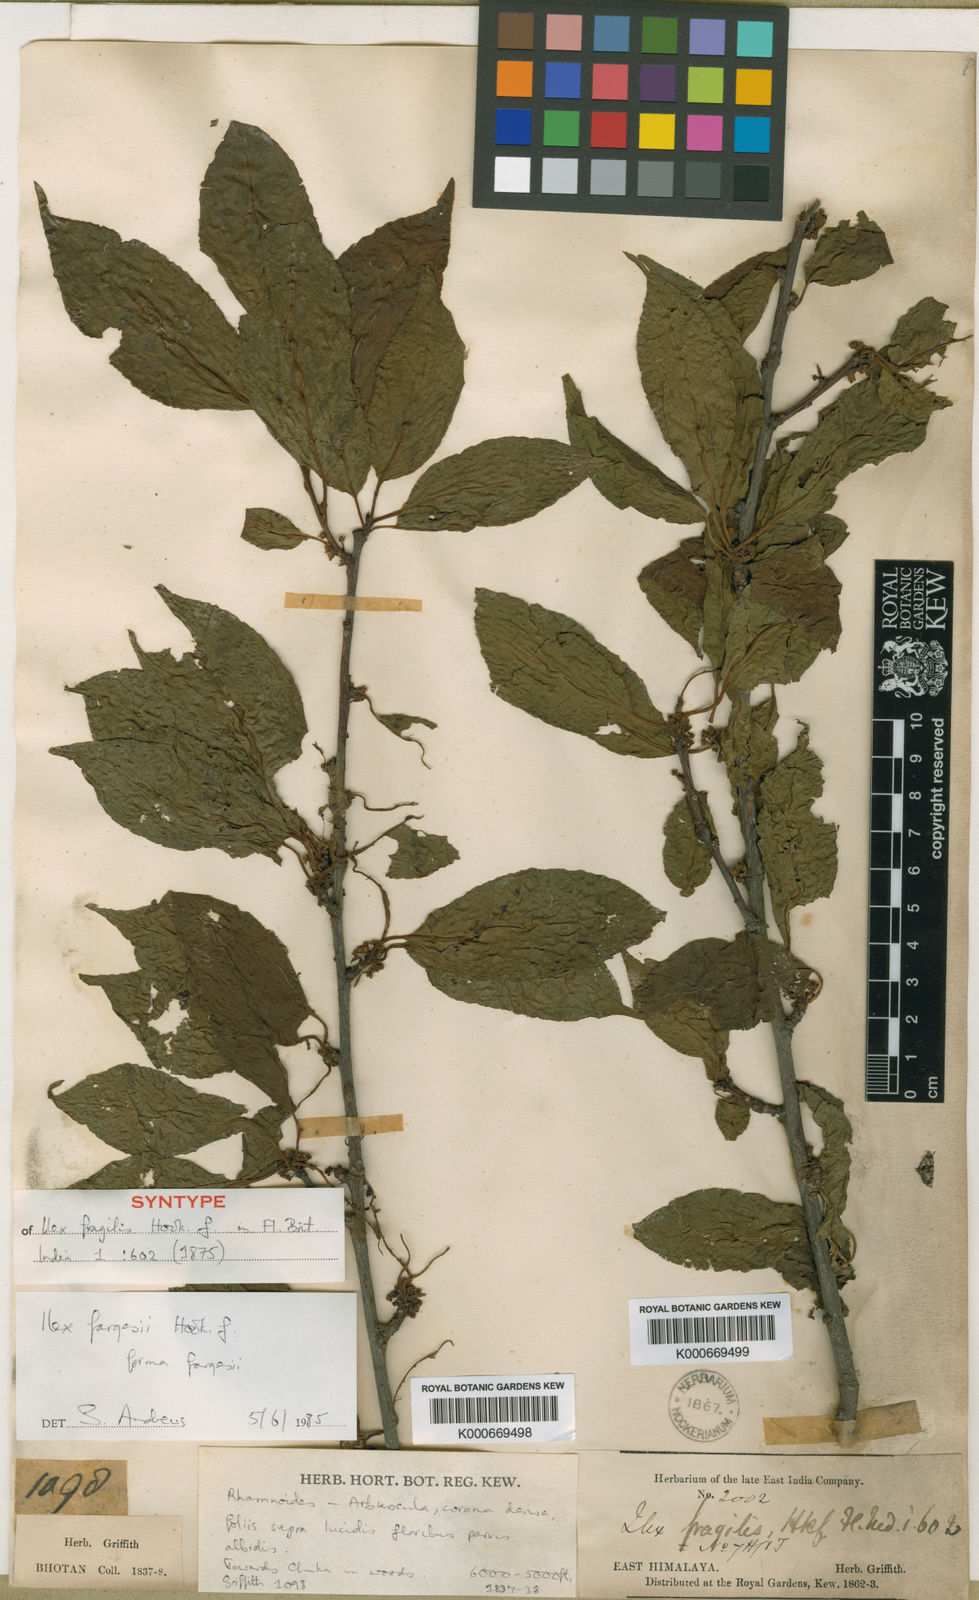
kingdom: Plantae
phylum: Tracheophyta
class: Magnoliopsida
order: Aquifoliales
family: Aquifoliaceae
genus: Ilex
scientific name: Ilex fragilis
